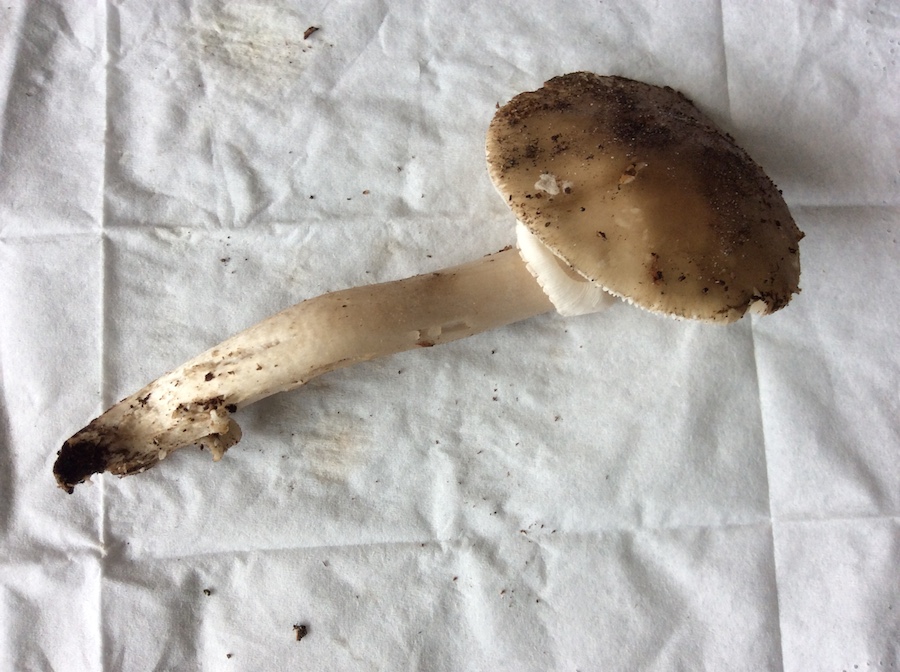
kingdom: Fungi
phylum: Basidiomycota
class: Agaricomycetes
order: Agaricales
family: Amanitaceae
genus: Amanita
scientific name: Amanita porphyria
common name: porfyr-fluesvamp
